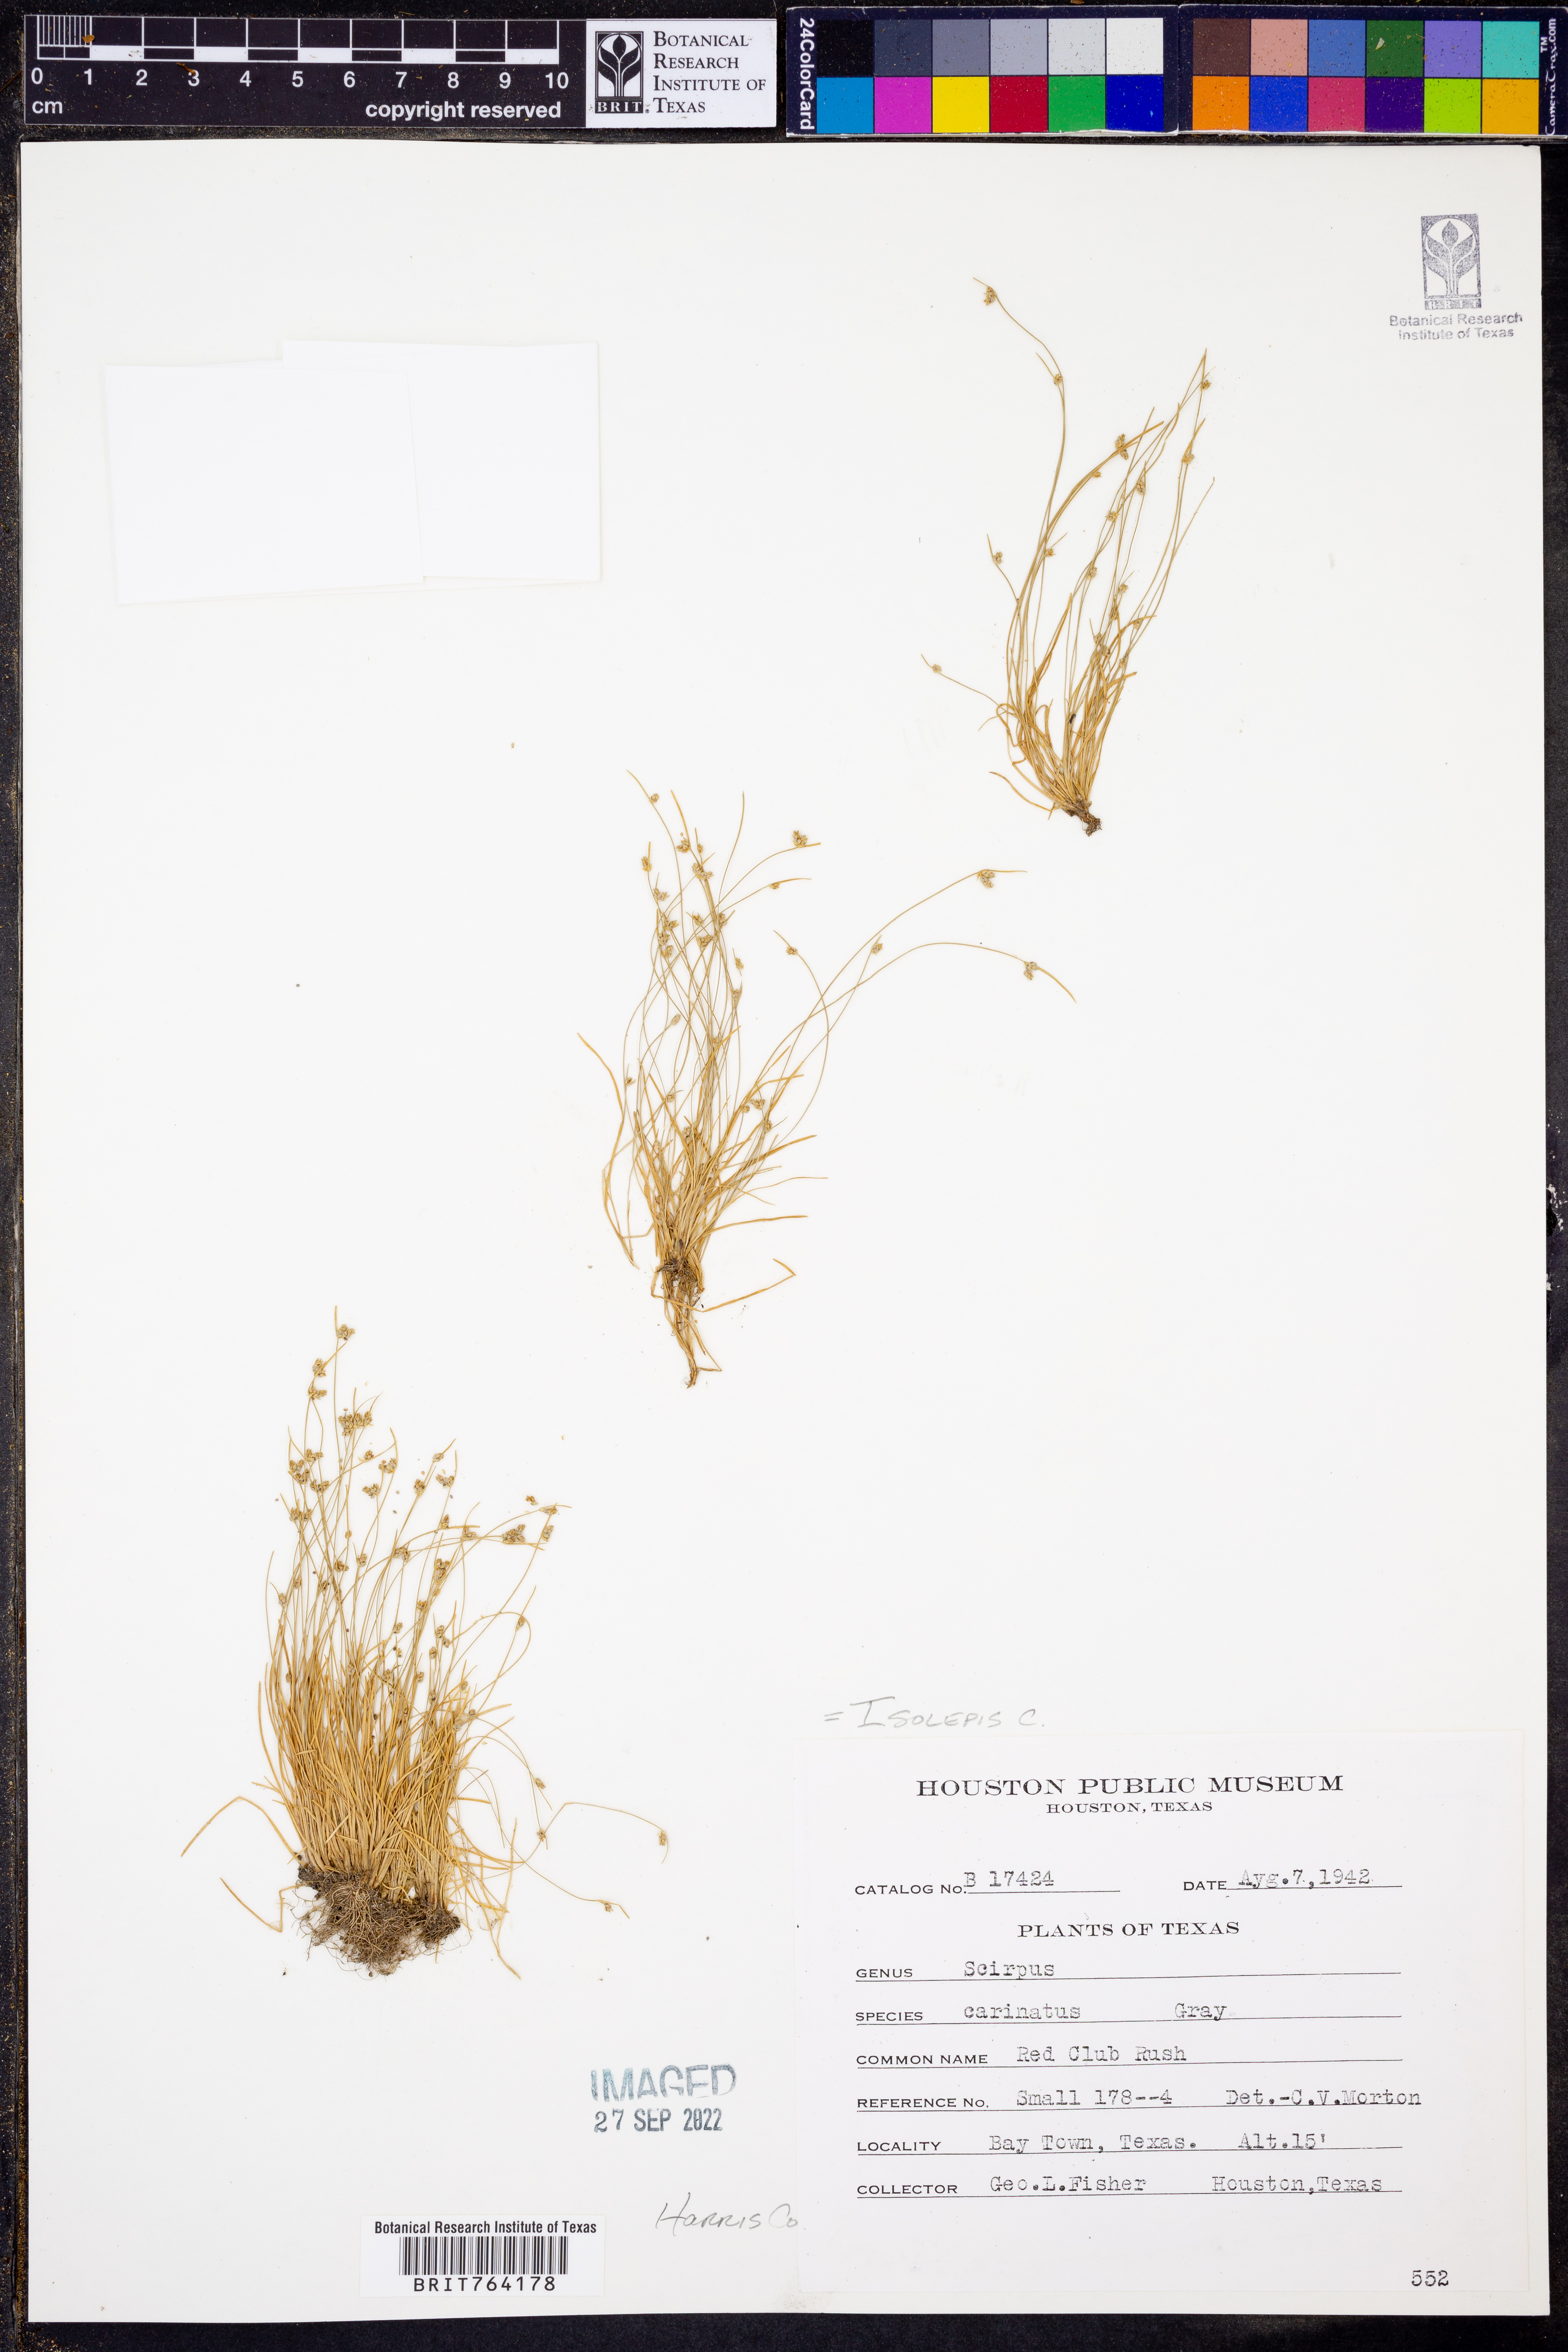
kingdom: Plantae
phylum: Tracheophyta
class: Liliopsida
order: Poales
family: Cyperaceae
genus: Isolepis
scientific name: Isolepis carinata
